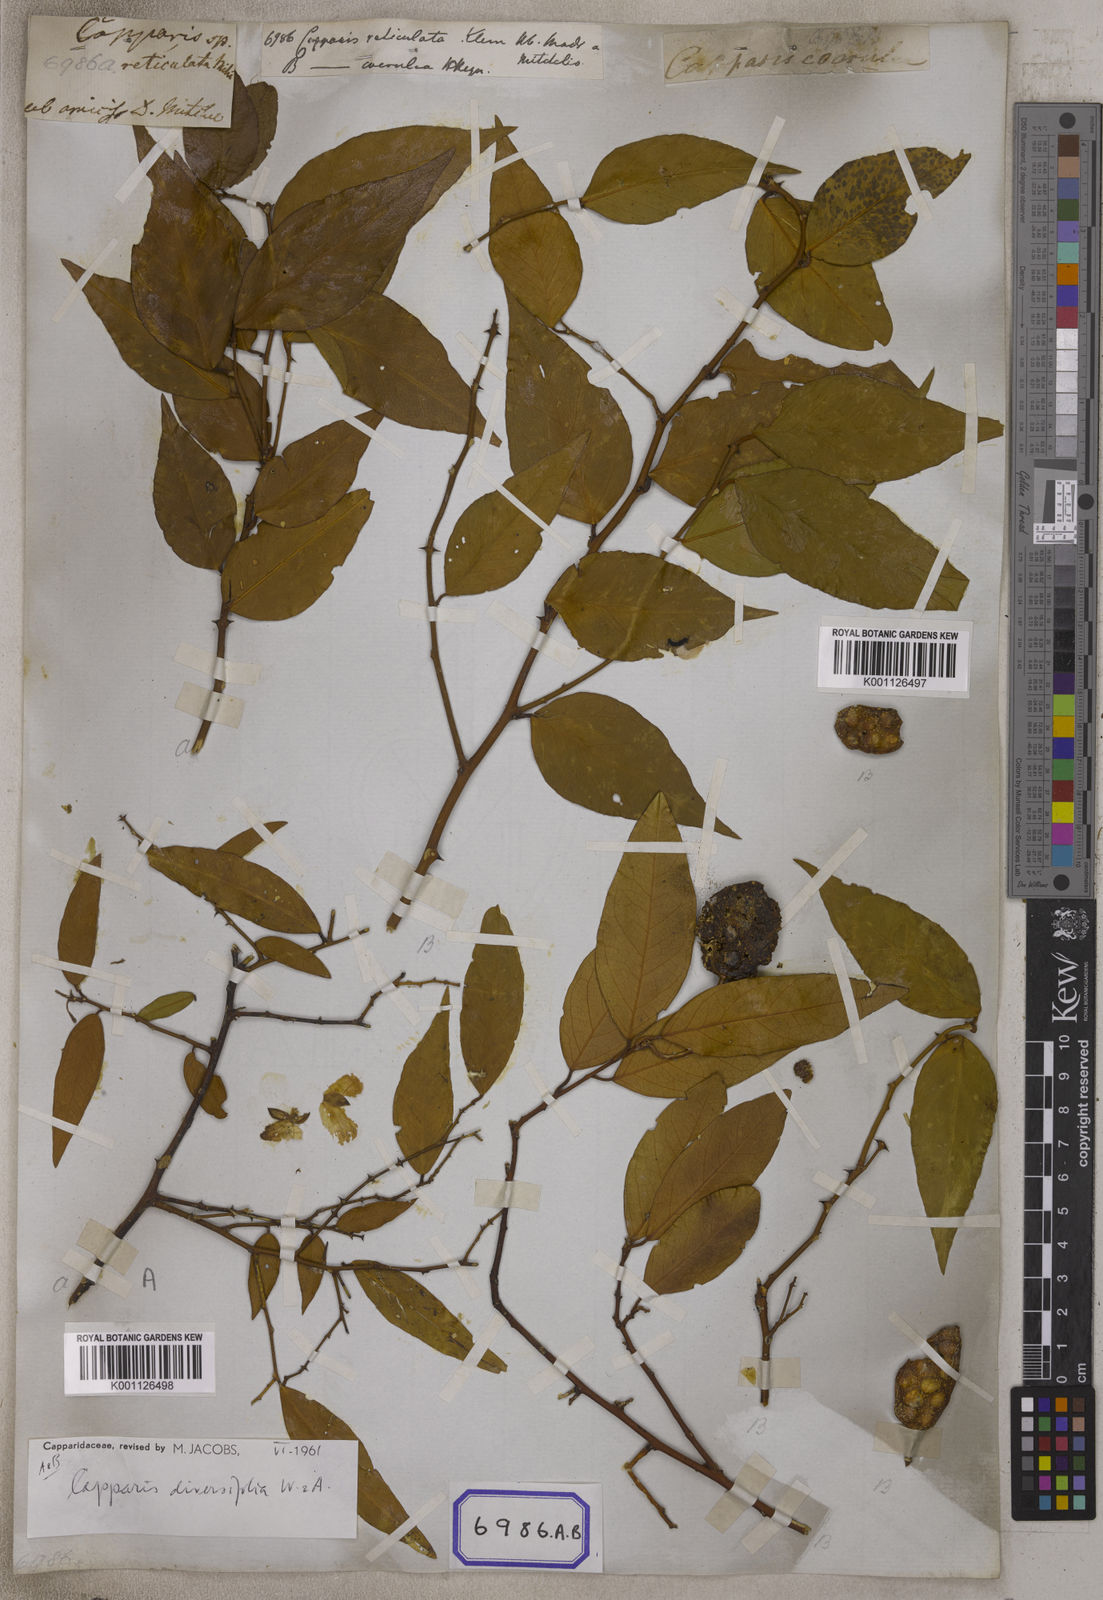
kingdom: Plantae
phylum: Tracheophyta
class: Magnoliopsida
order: Brassicales
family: Capparaceae
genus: Capparis
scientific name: Capparis
